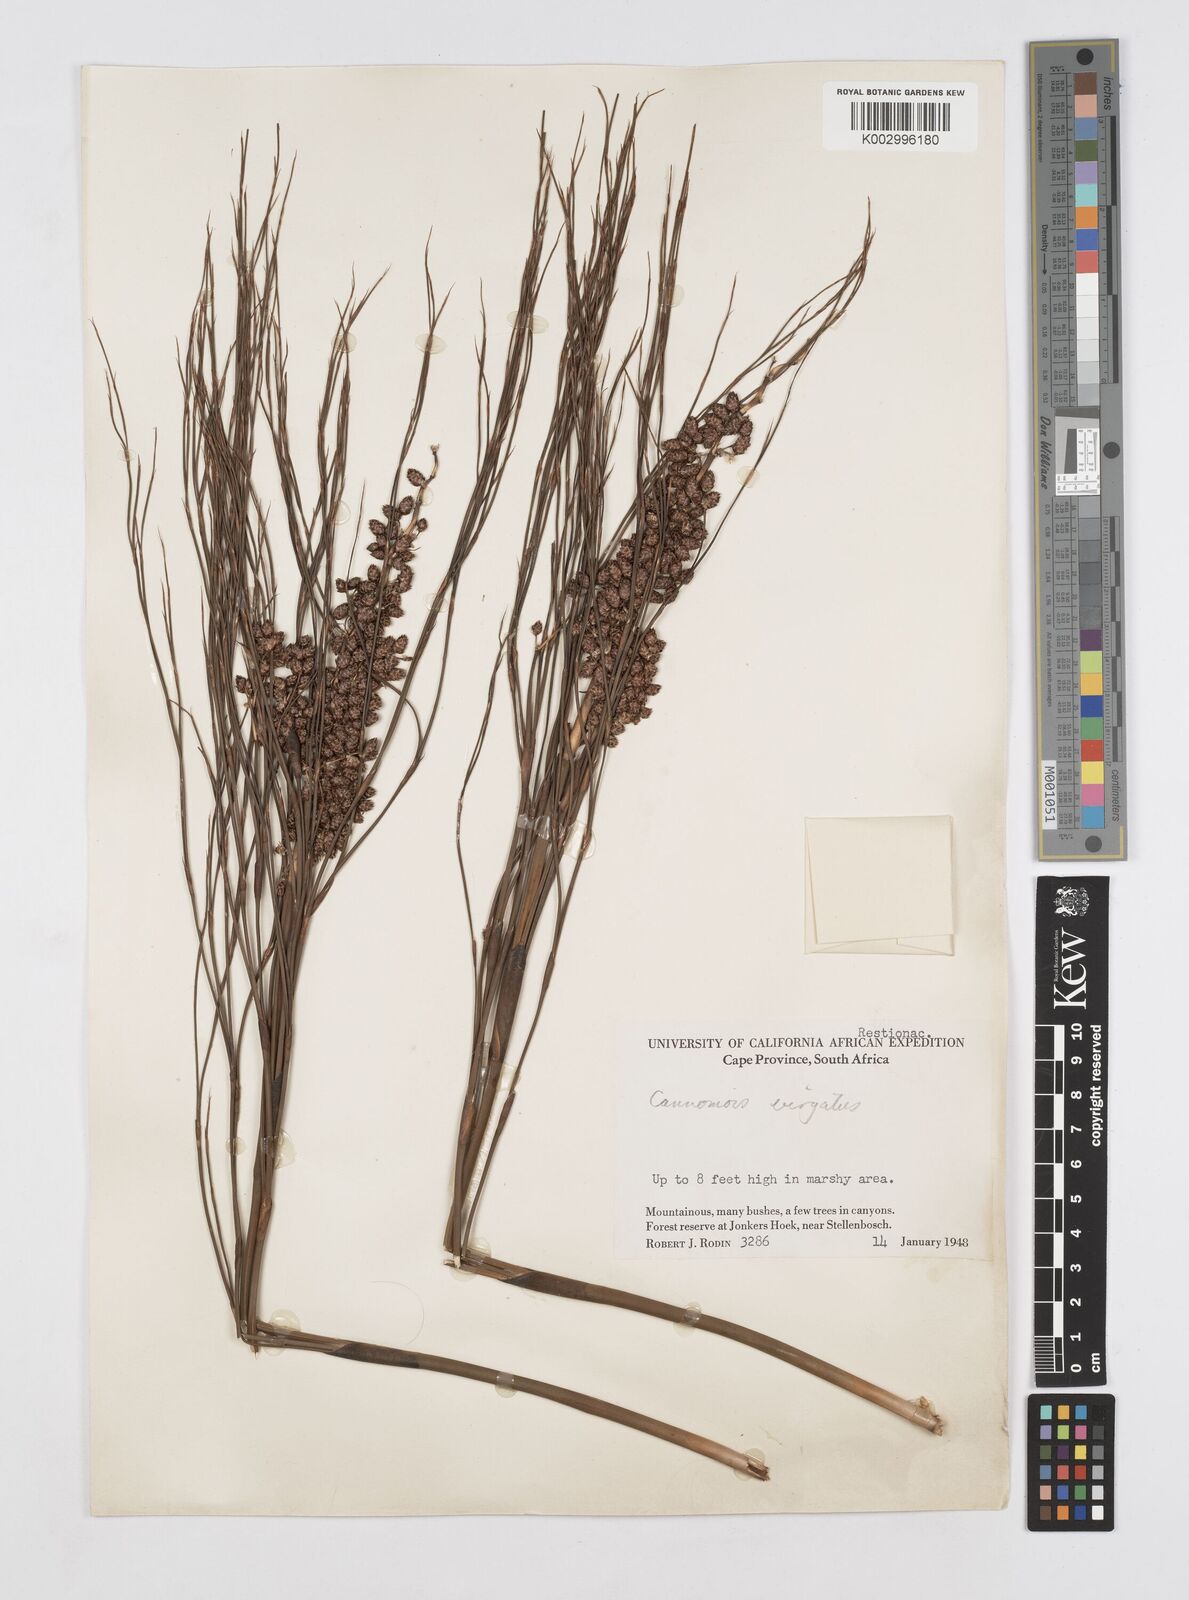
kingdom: Plantae
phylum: Tracheophyta
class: Liliopsida
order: Poales
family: Restionaceae
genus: Cannomois
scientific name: Cannomois virgata
